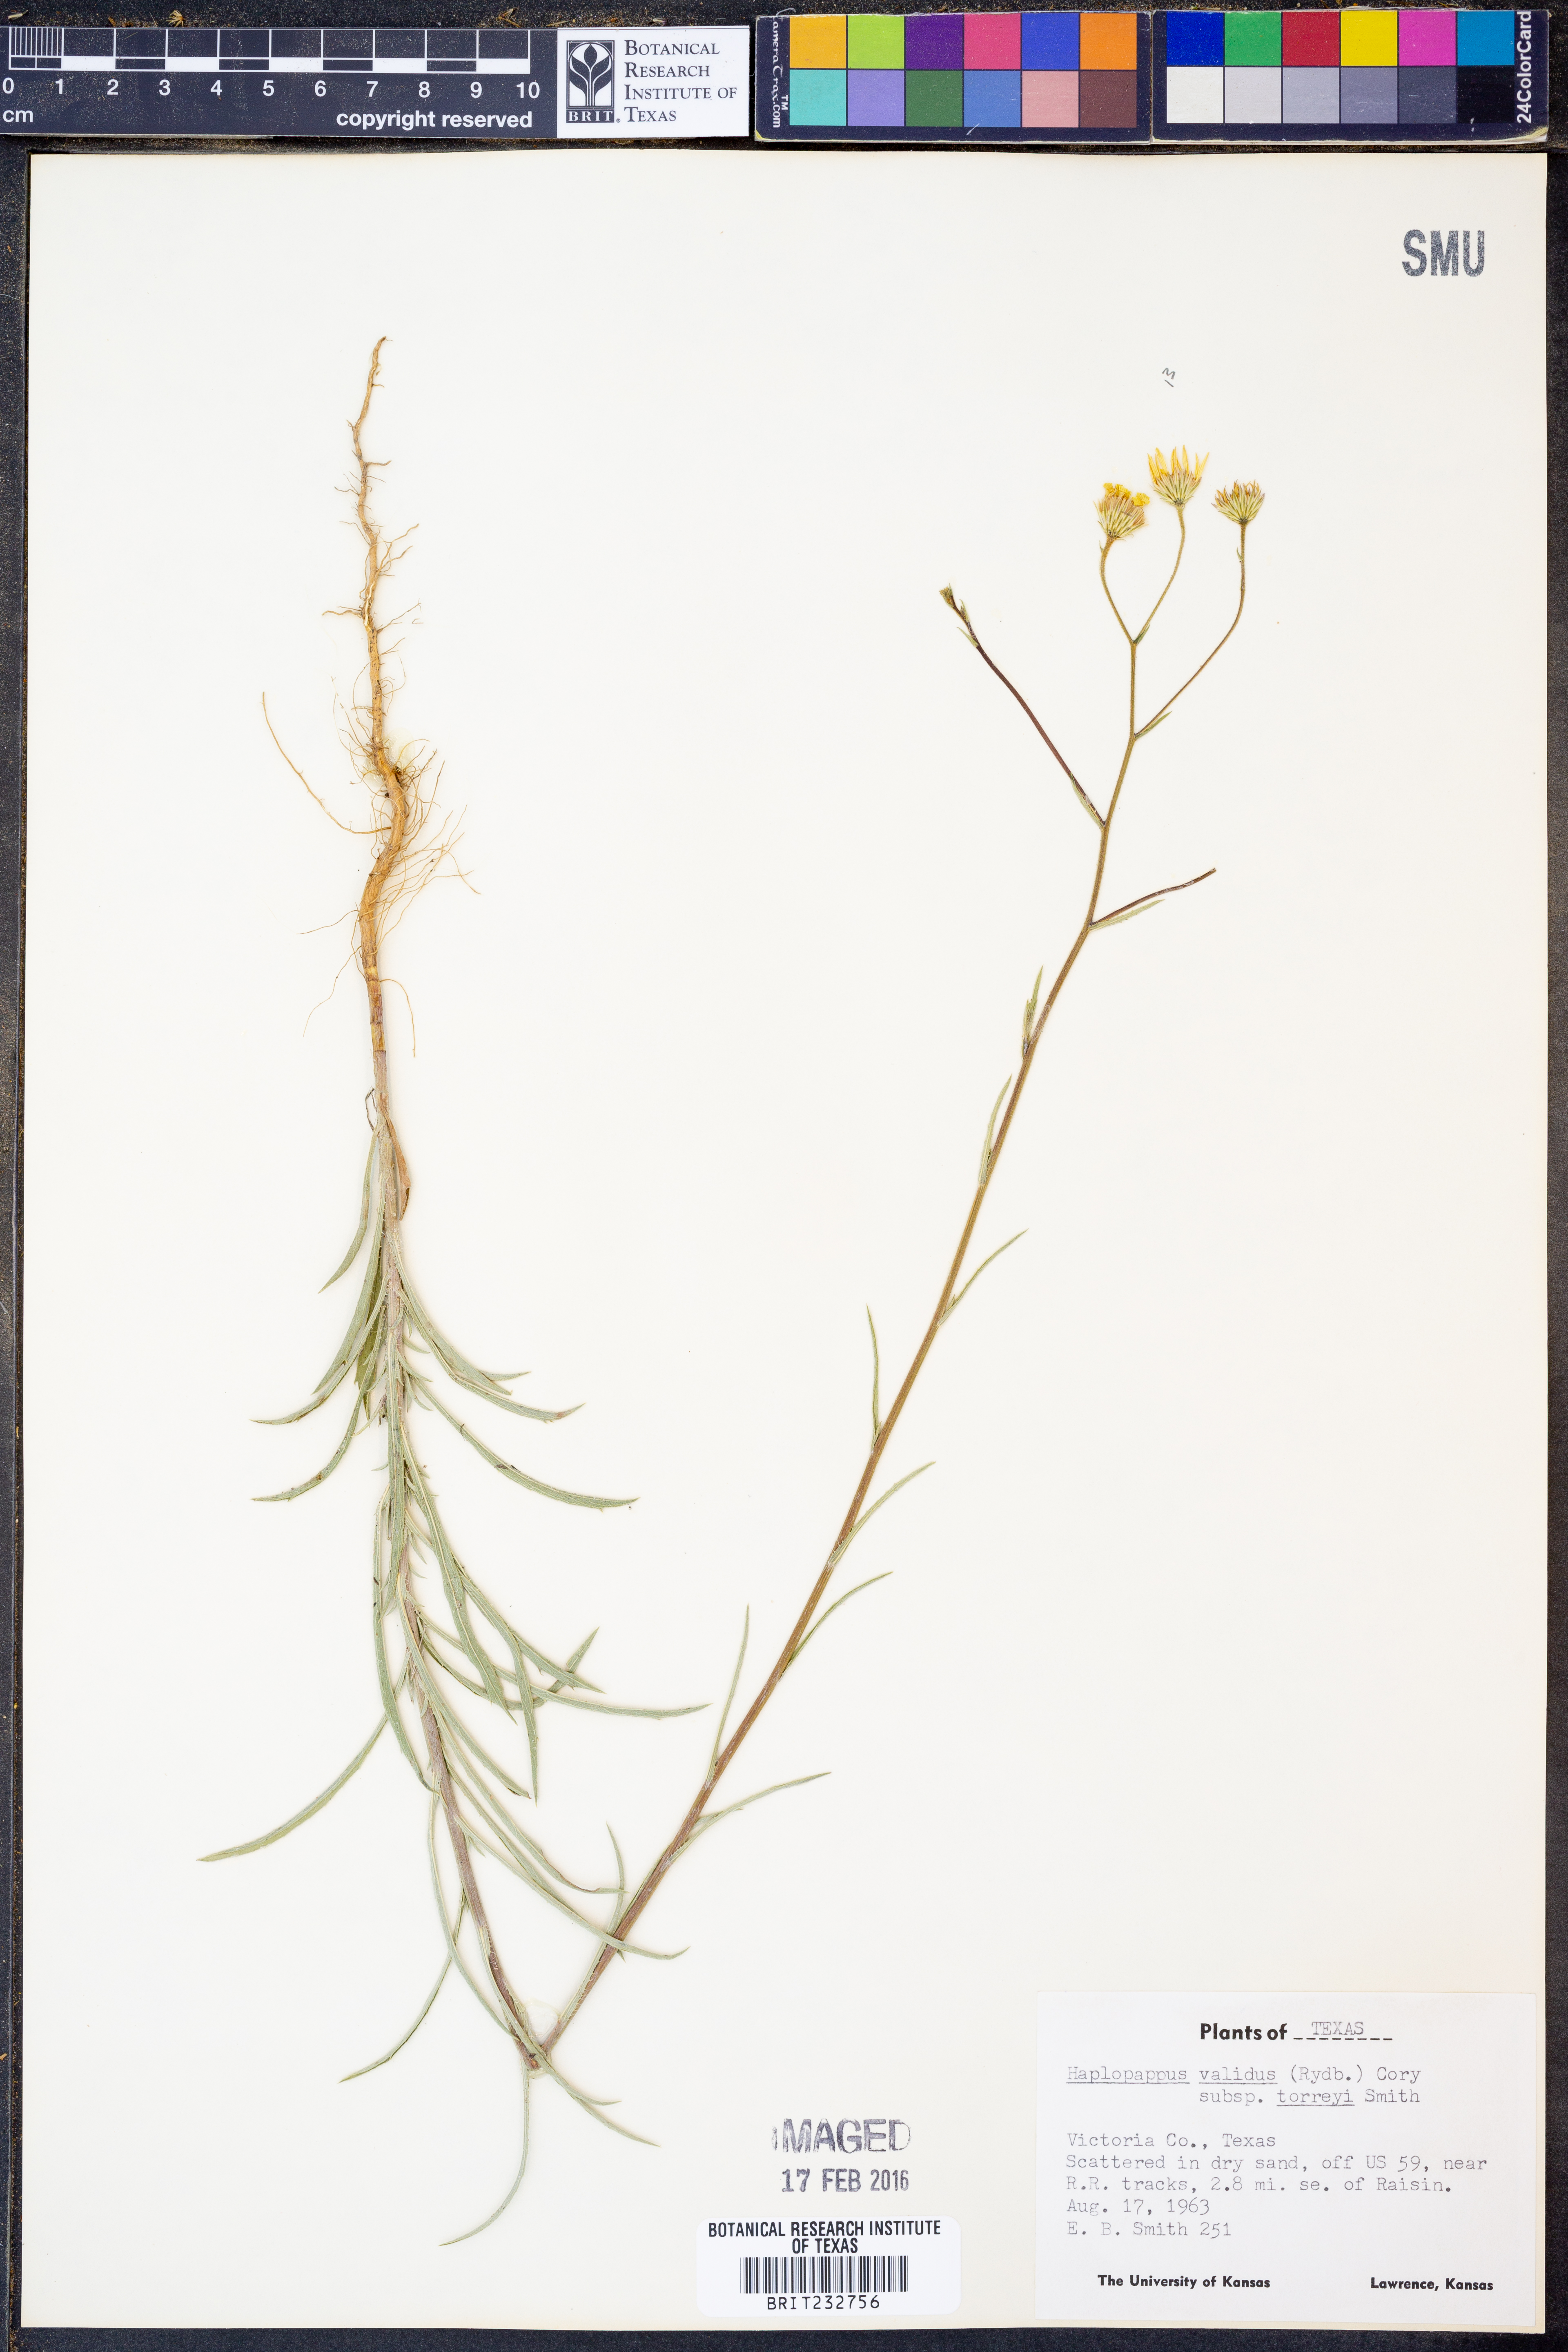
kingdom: Plantae
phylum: Tracheophyta
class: Magnoliopsida
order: Asterales
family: Asteraceae
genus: Croptilon
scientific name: Croptilon hookerianum
